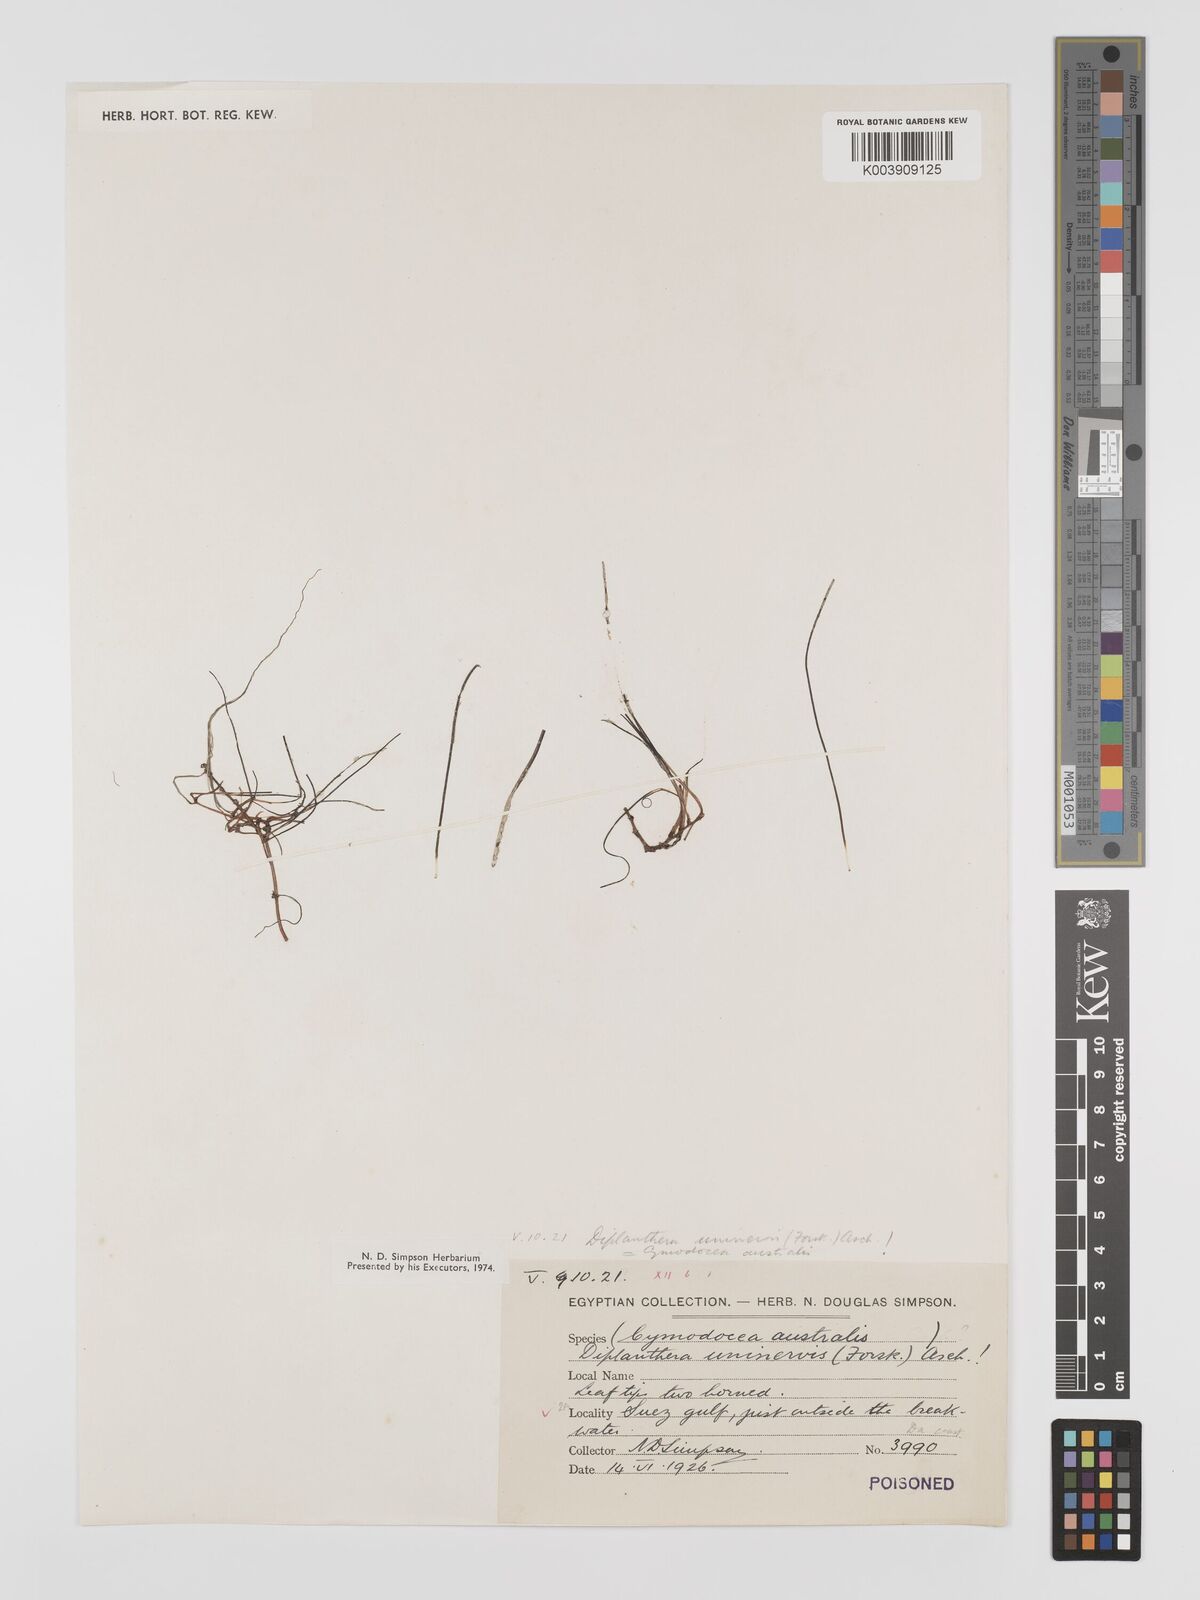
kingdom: Plantae
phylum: Tracheophyta
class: Liliopsida
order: Alismatales
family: Cymodoceaceae
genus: Halodule
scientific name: Halodule uninervis
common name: Narrowleaf seagrass
